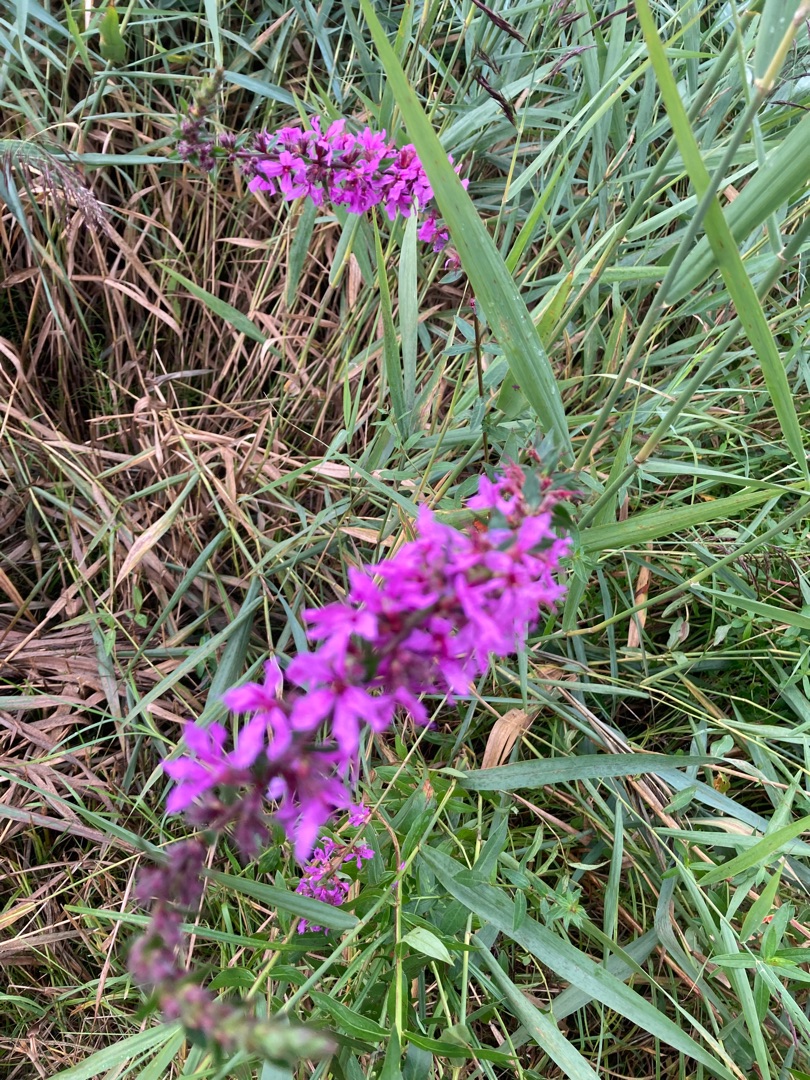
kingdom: Plantae
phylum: Tracheophyta
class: Magnoliopsida
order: Myrtales
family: Lythraceae
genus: Lythrum
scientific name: Lythrum salicaria
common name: Kattehale
